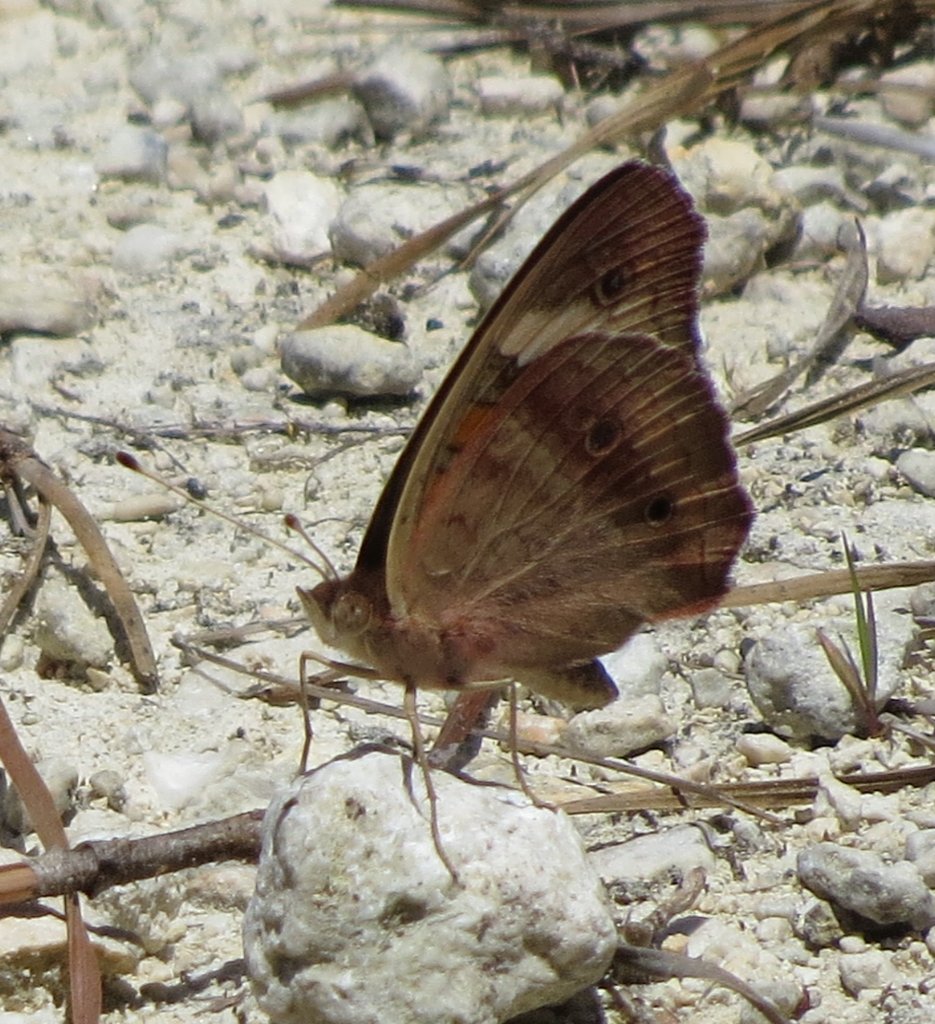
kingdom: Animalia
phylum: Arthropoda
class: Insecta
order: Lepidoptera
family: Nymphalidae
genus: Junonia
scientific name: Junonia coenia
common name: Common Buckeye
